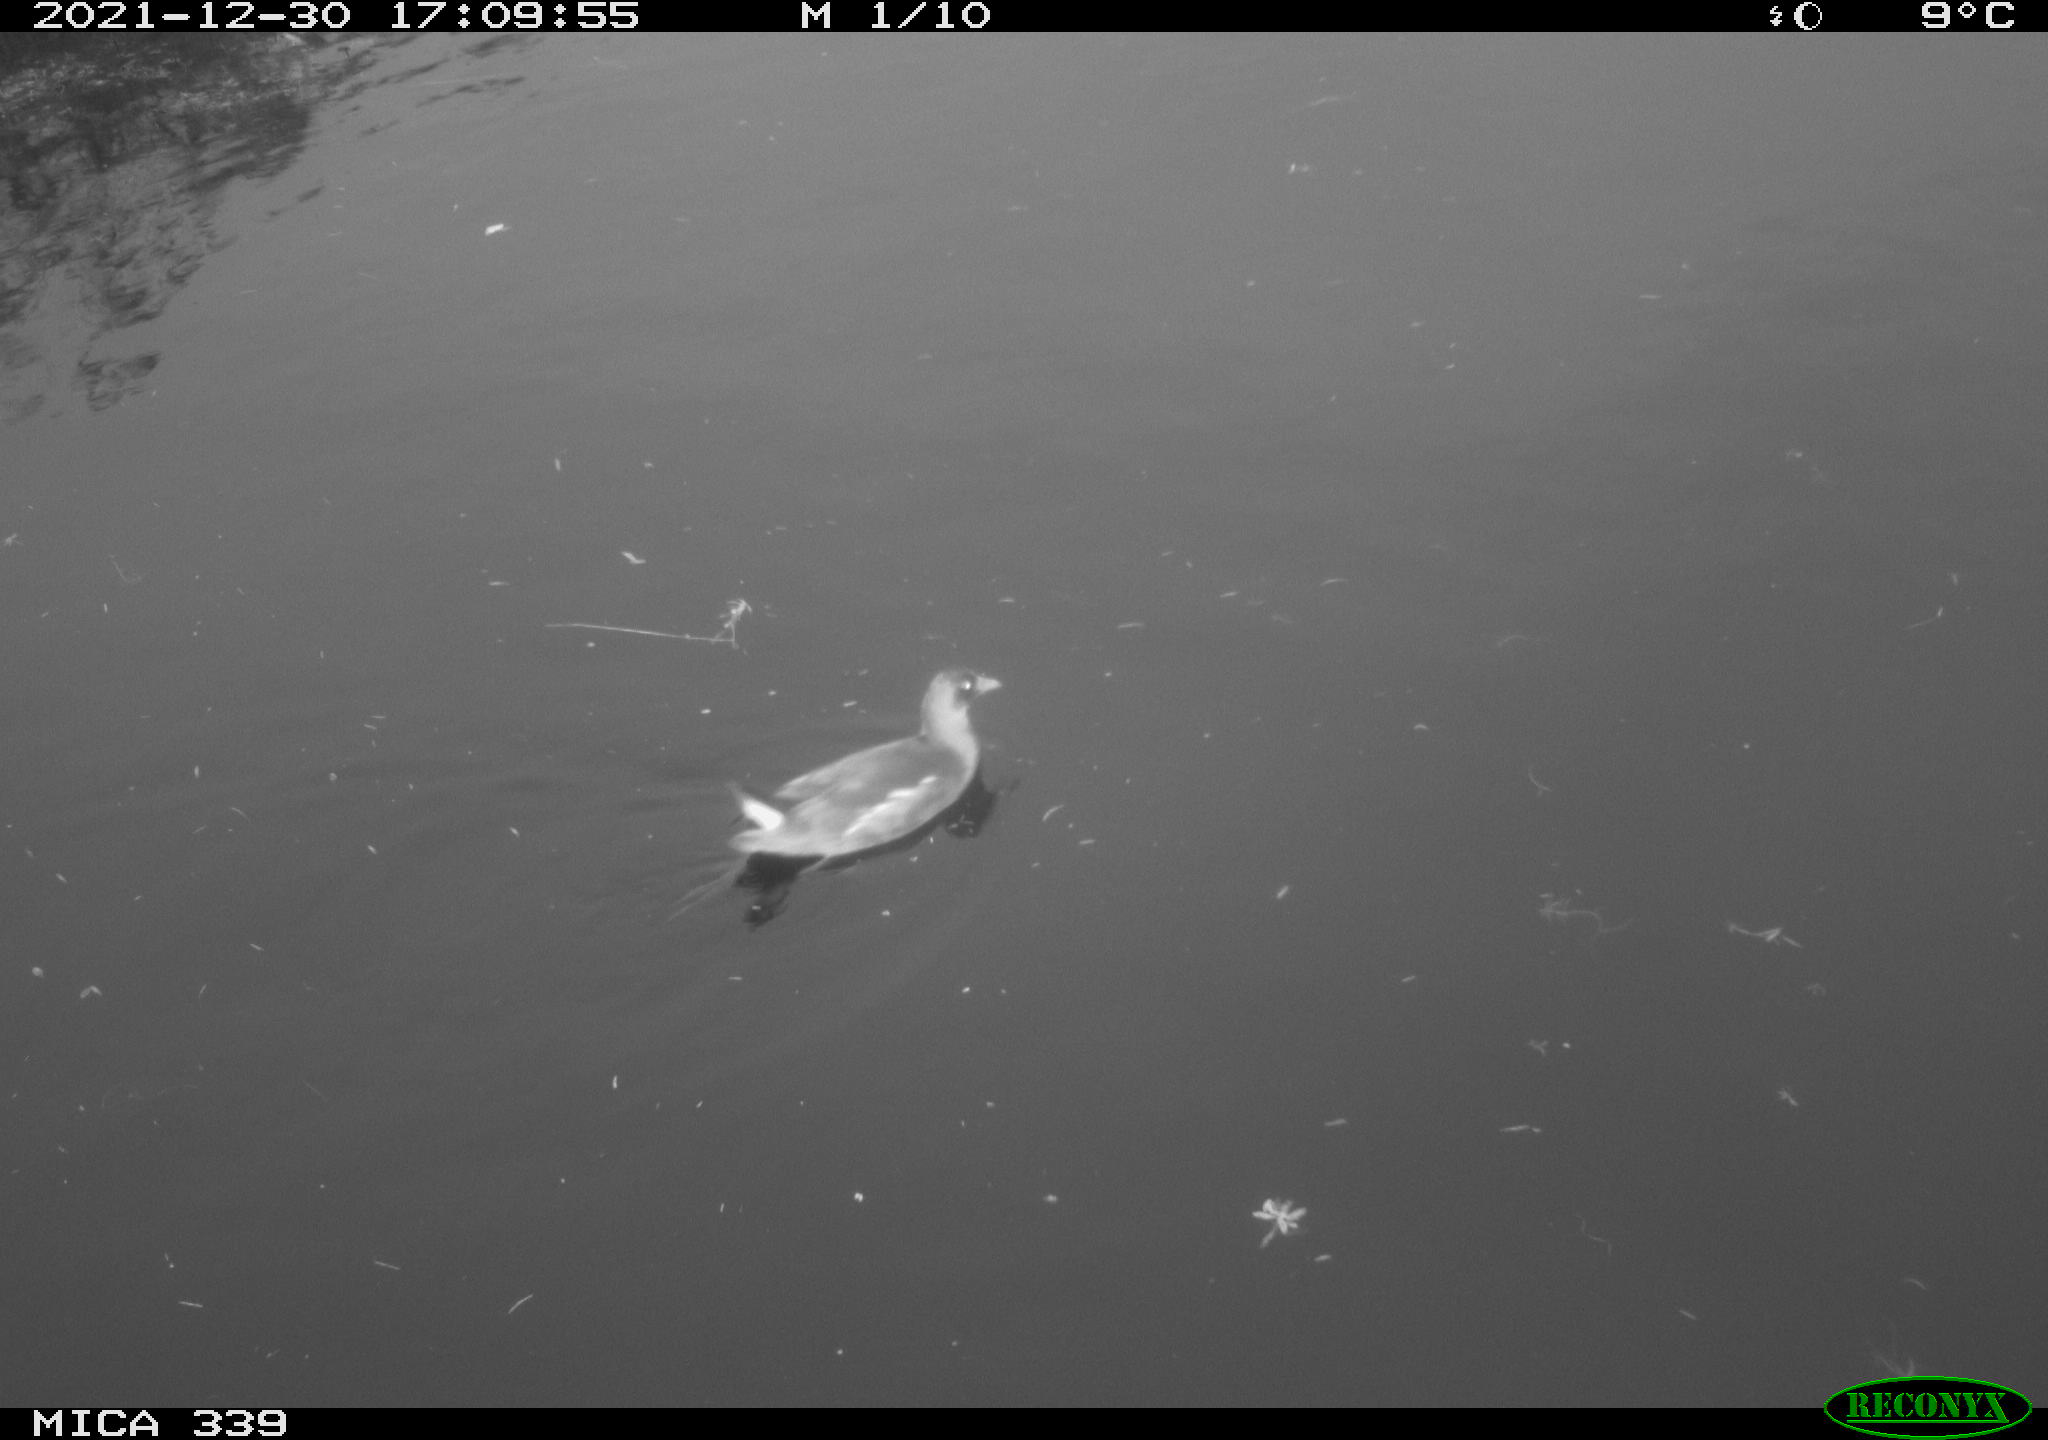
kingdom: Animalia
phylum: Chordata
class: Aves
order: Gruiformes
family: Rallidae
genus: Gallinula
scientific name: Gallinula chloropus
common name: Common moorhen
